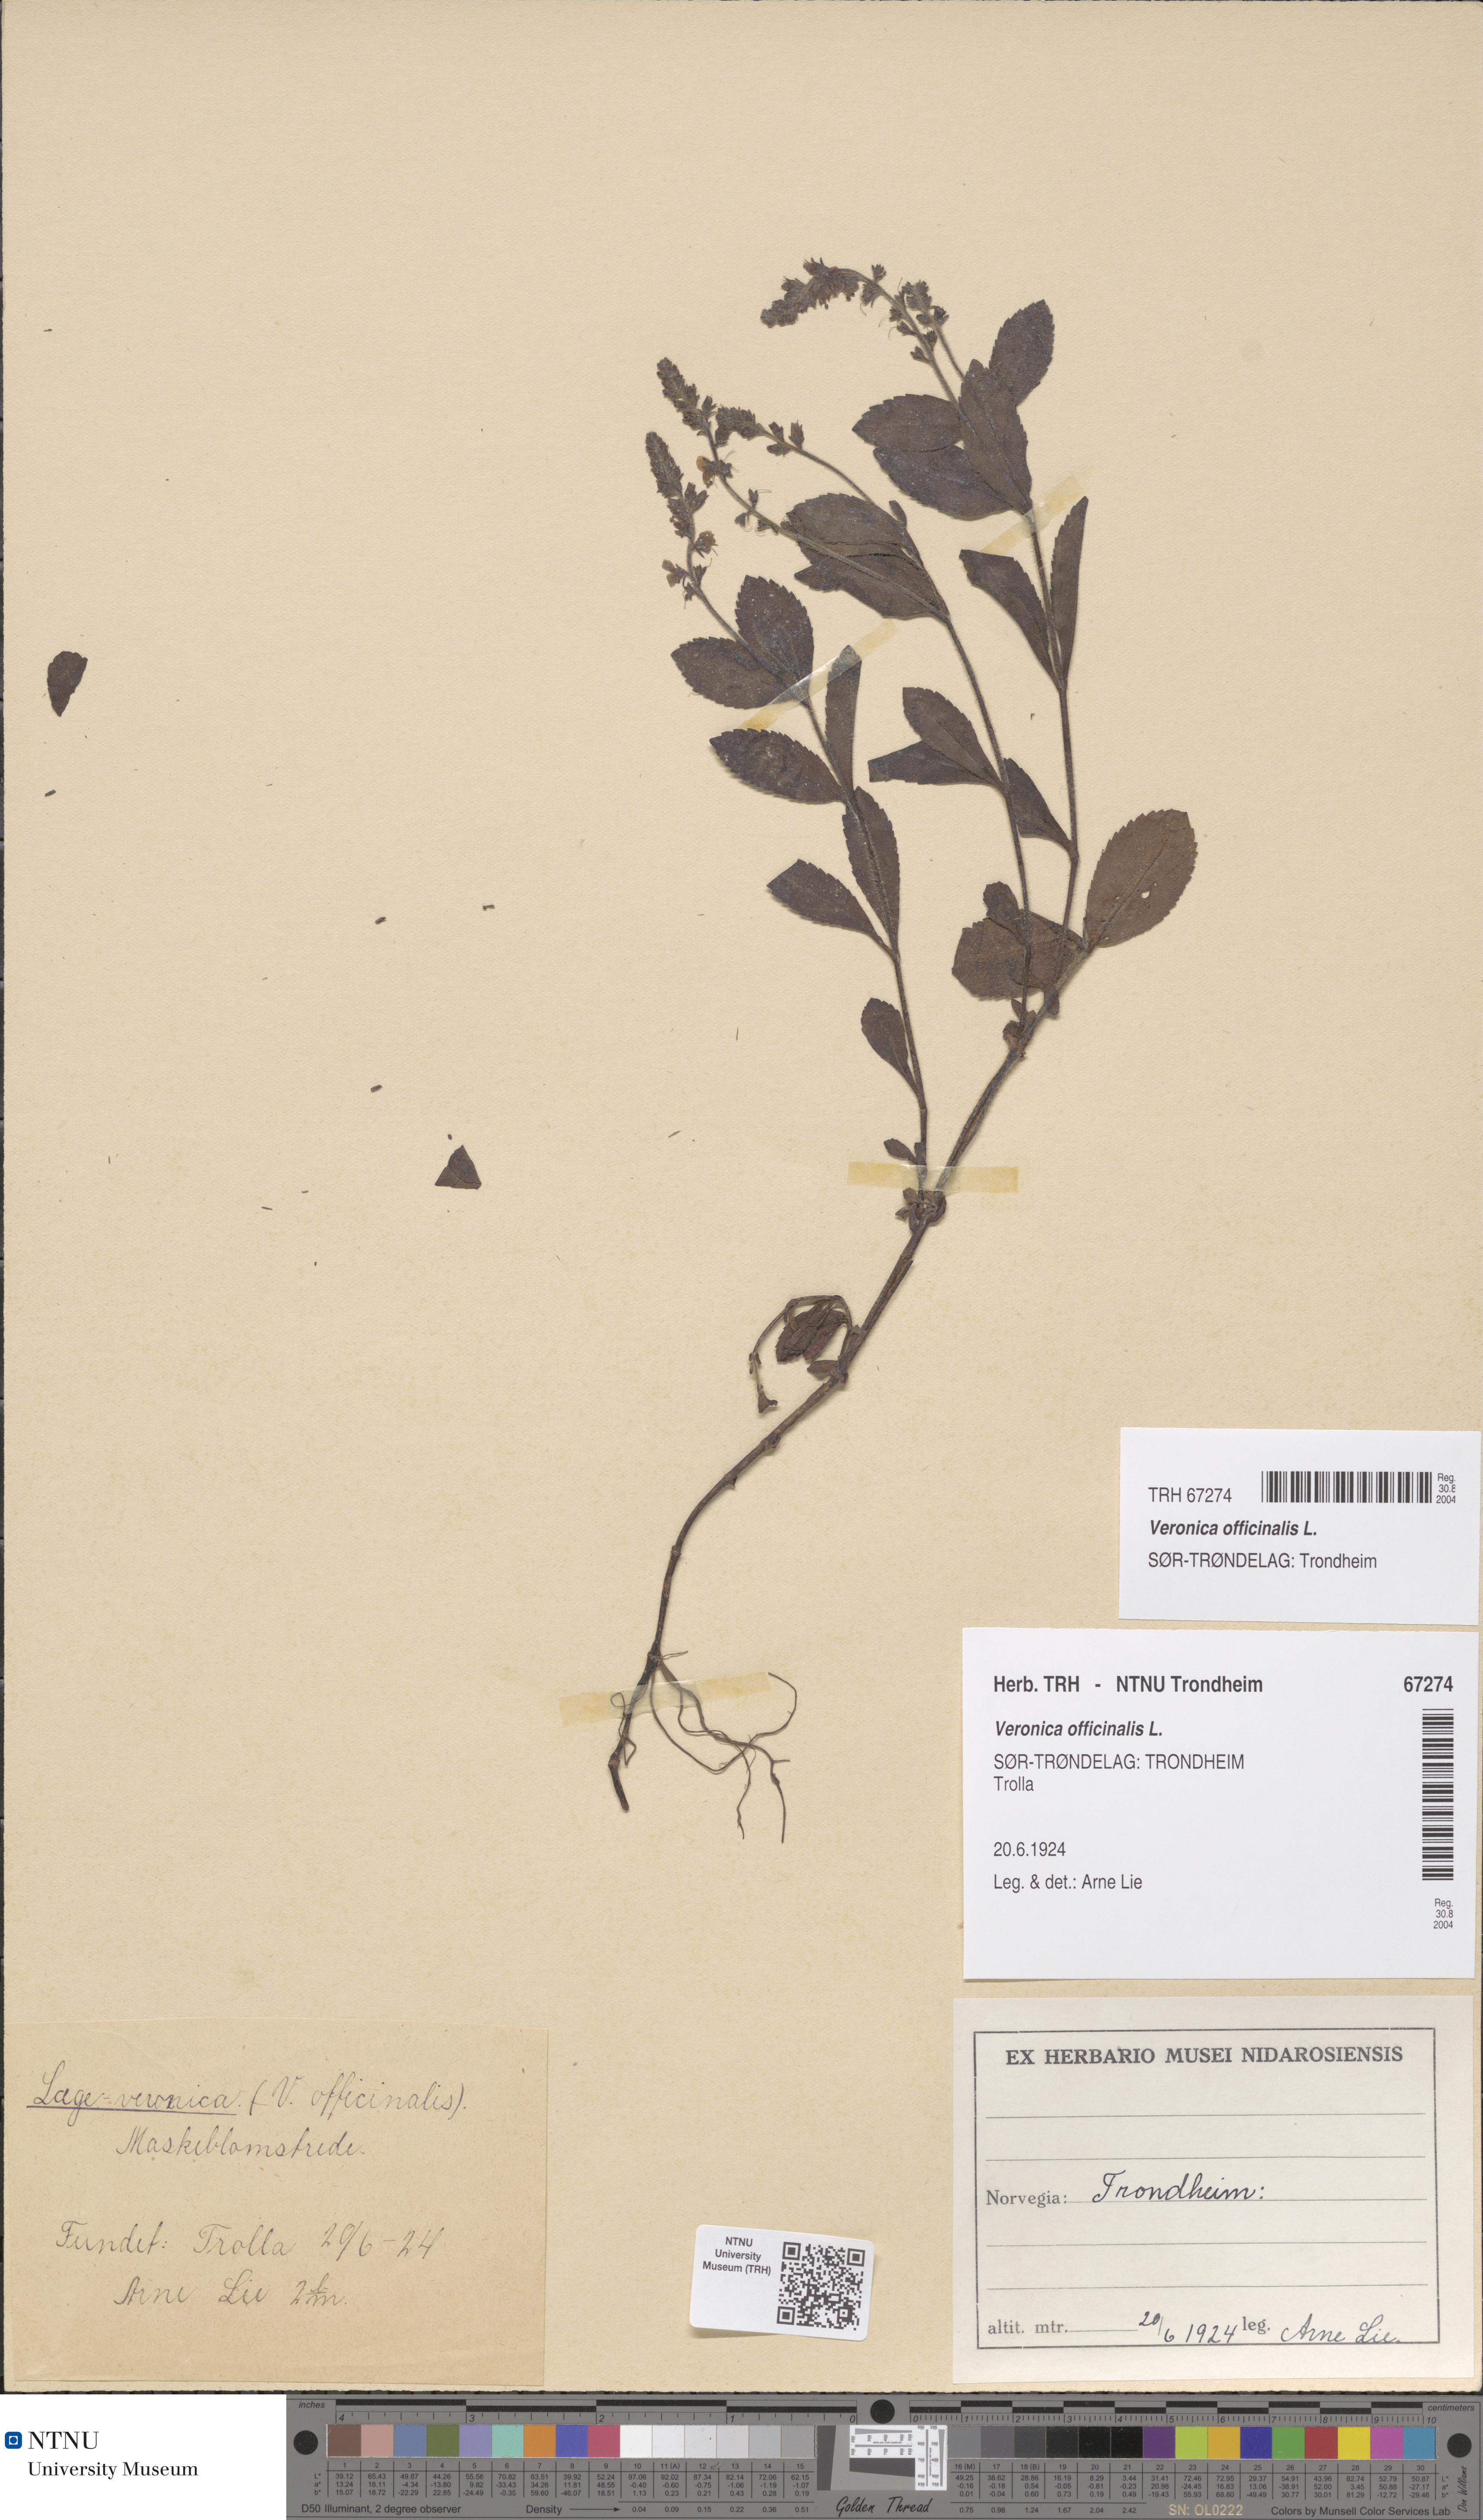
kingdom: Plantae
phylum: Tracheophyta
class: Magnoliopsida
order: Lamiales
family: Plantaginaceae
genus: Veronica
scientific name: Veronica officinalis
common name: Common speedwell
